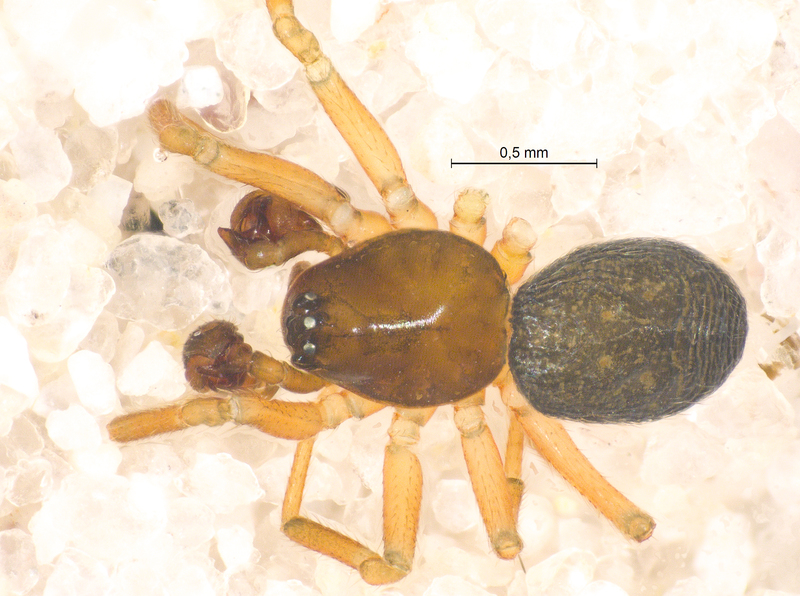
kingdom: Animalia
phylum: Arthropoda
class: Arachnida
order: Araneae
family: Linyphiidae
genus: Styloctetor
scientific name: Styloctetor romanus
